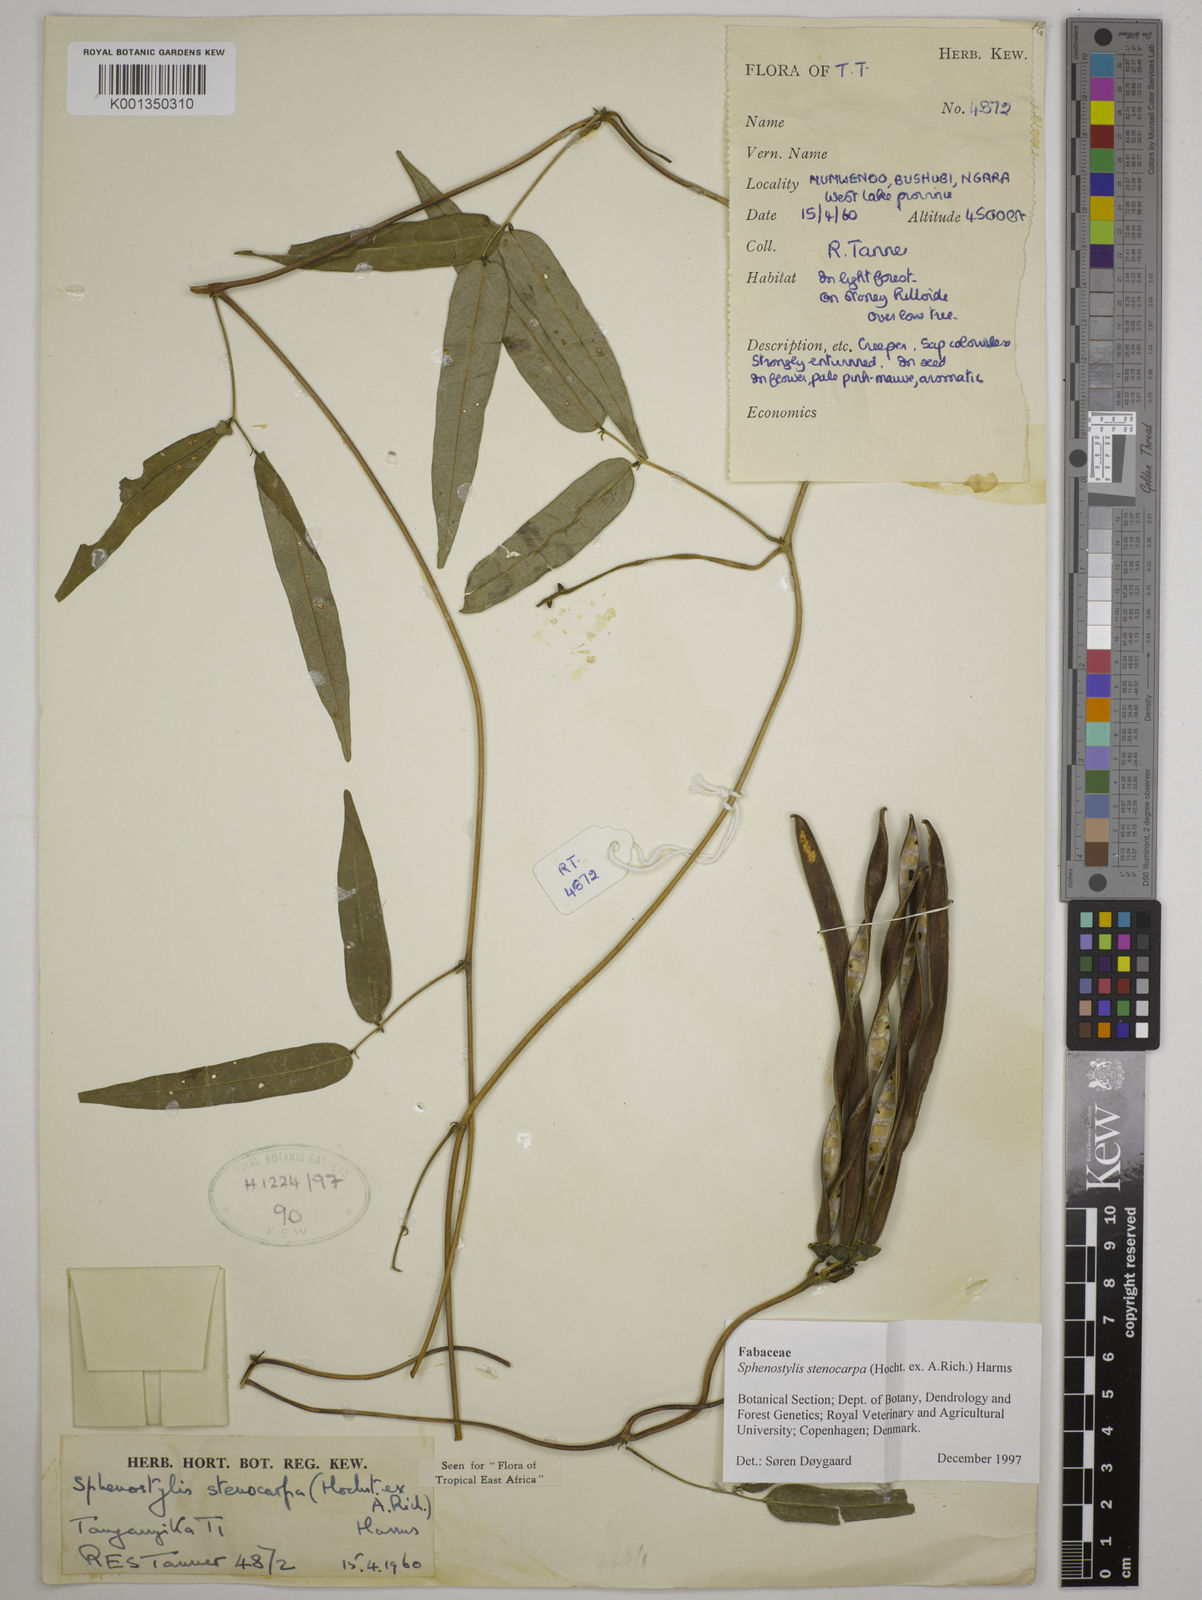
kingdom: Plantae
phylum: Tracheophyta
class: Magnoliopsida
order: Fabales
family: Fabaceae
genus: Sphenostylis
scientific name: Sphenostylis stenocarpa
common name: Yam-pea
